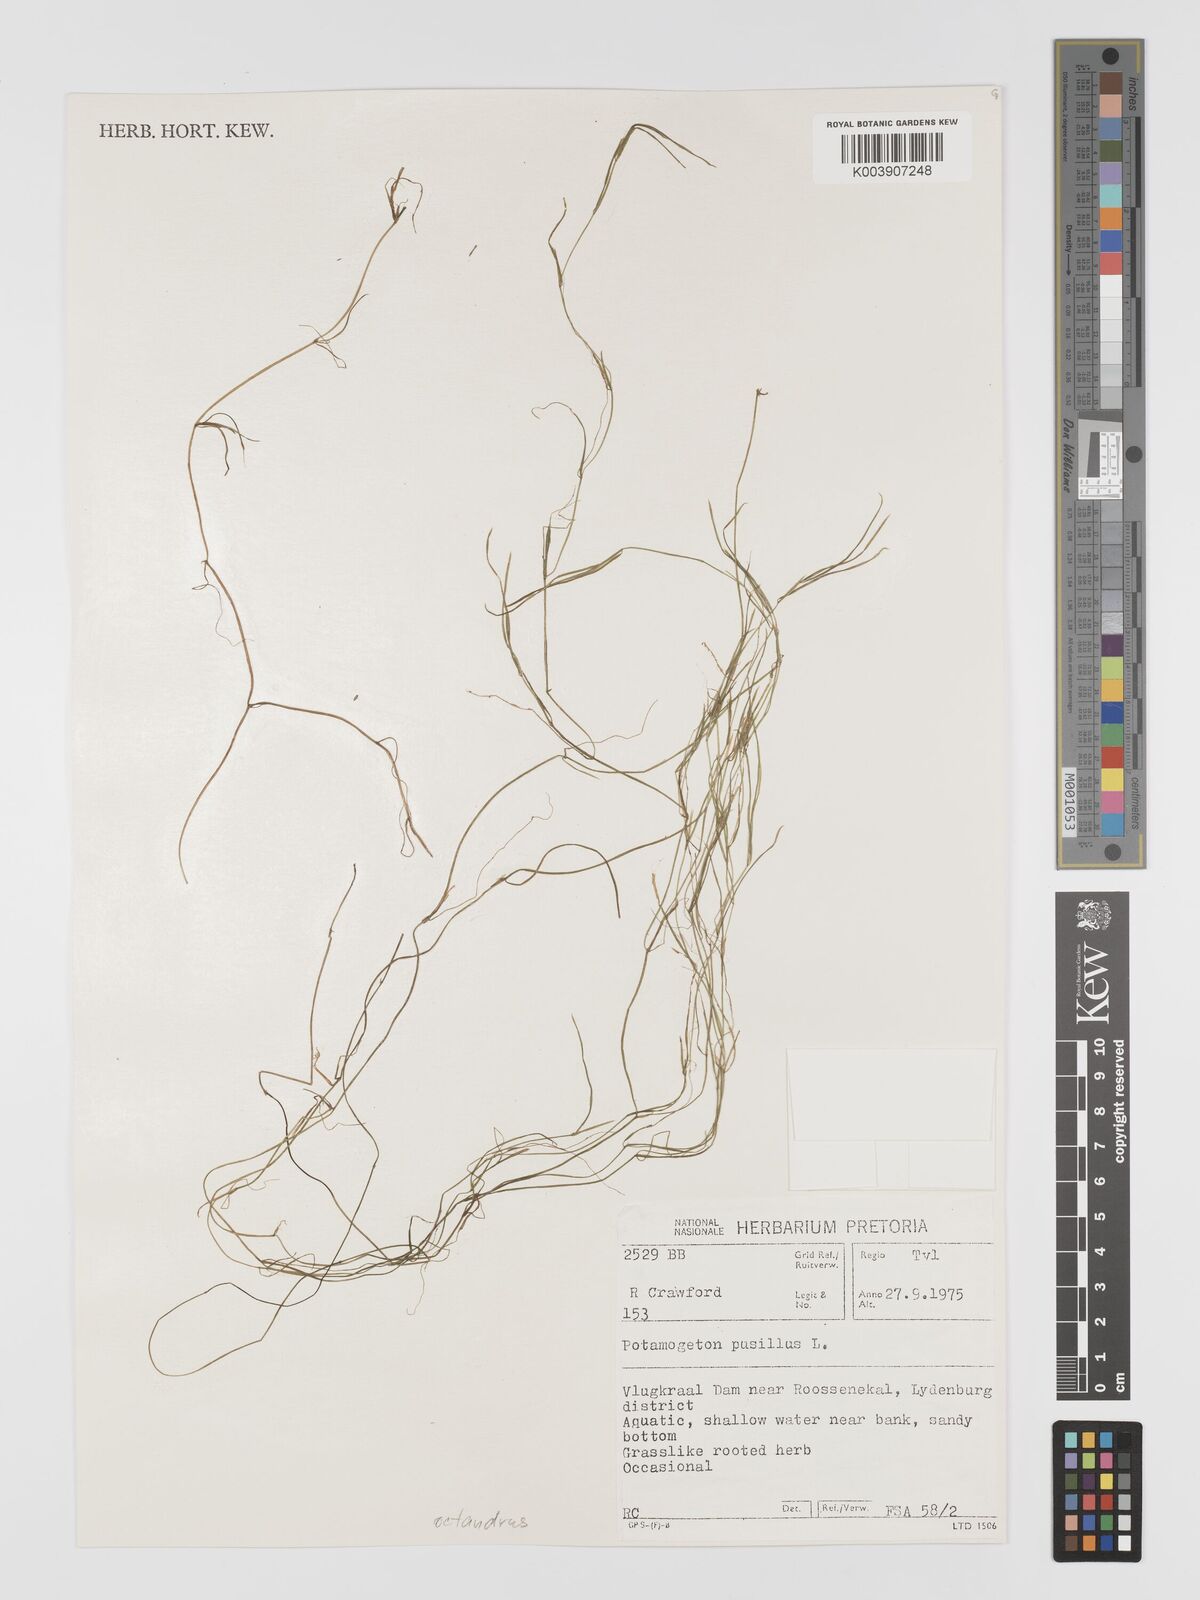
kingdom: Plantae
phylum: Tracheophyta
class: Liliopsida
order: Alismatales
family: Potamogetonaceae
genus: Potamogeton
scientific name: Potamogeton octandrus
